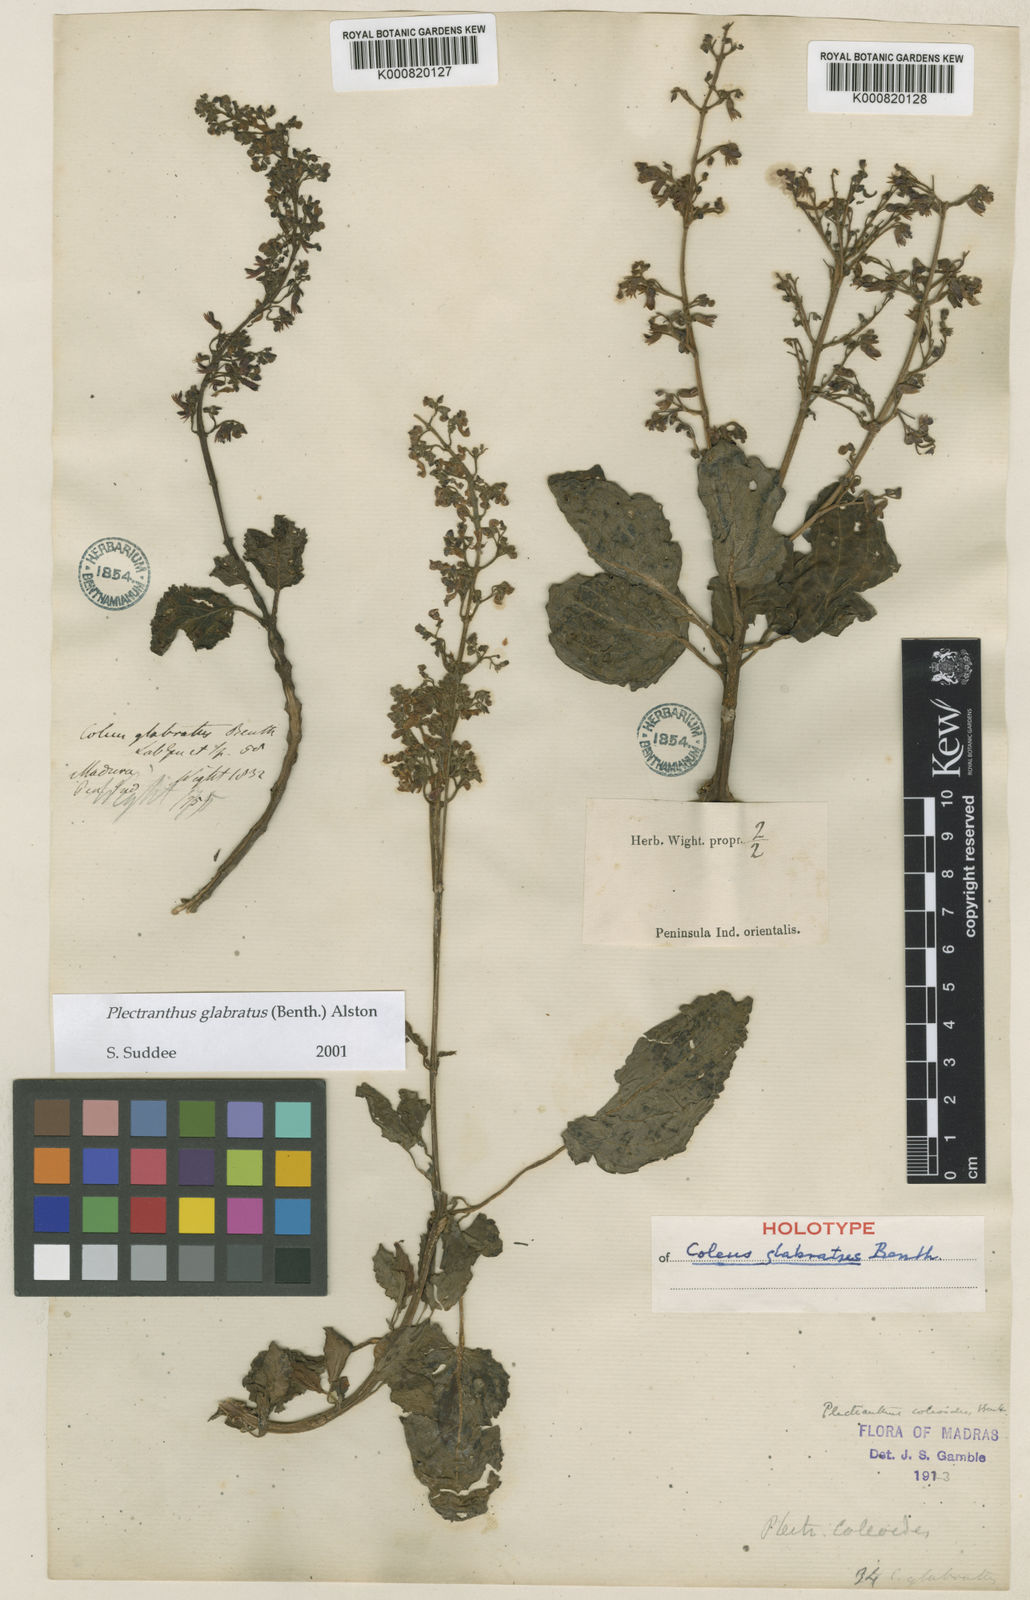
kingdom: Plantae
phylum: Tracheophyta
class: Magnoliopsida
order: Lamiales
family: Lamiaceae
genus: Coleus
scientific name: Coleus paniculatus
